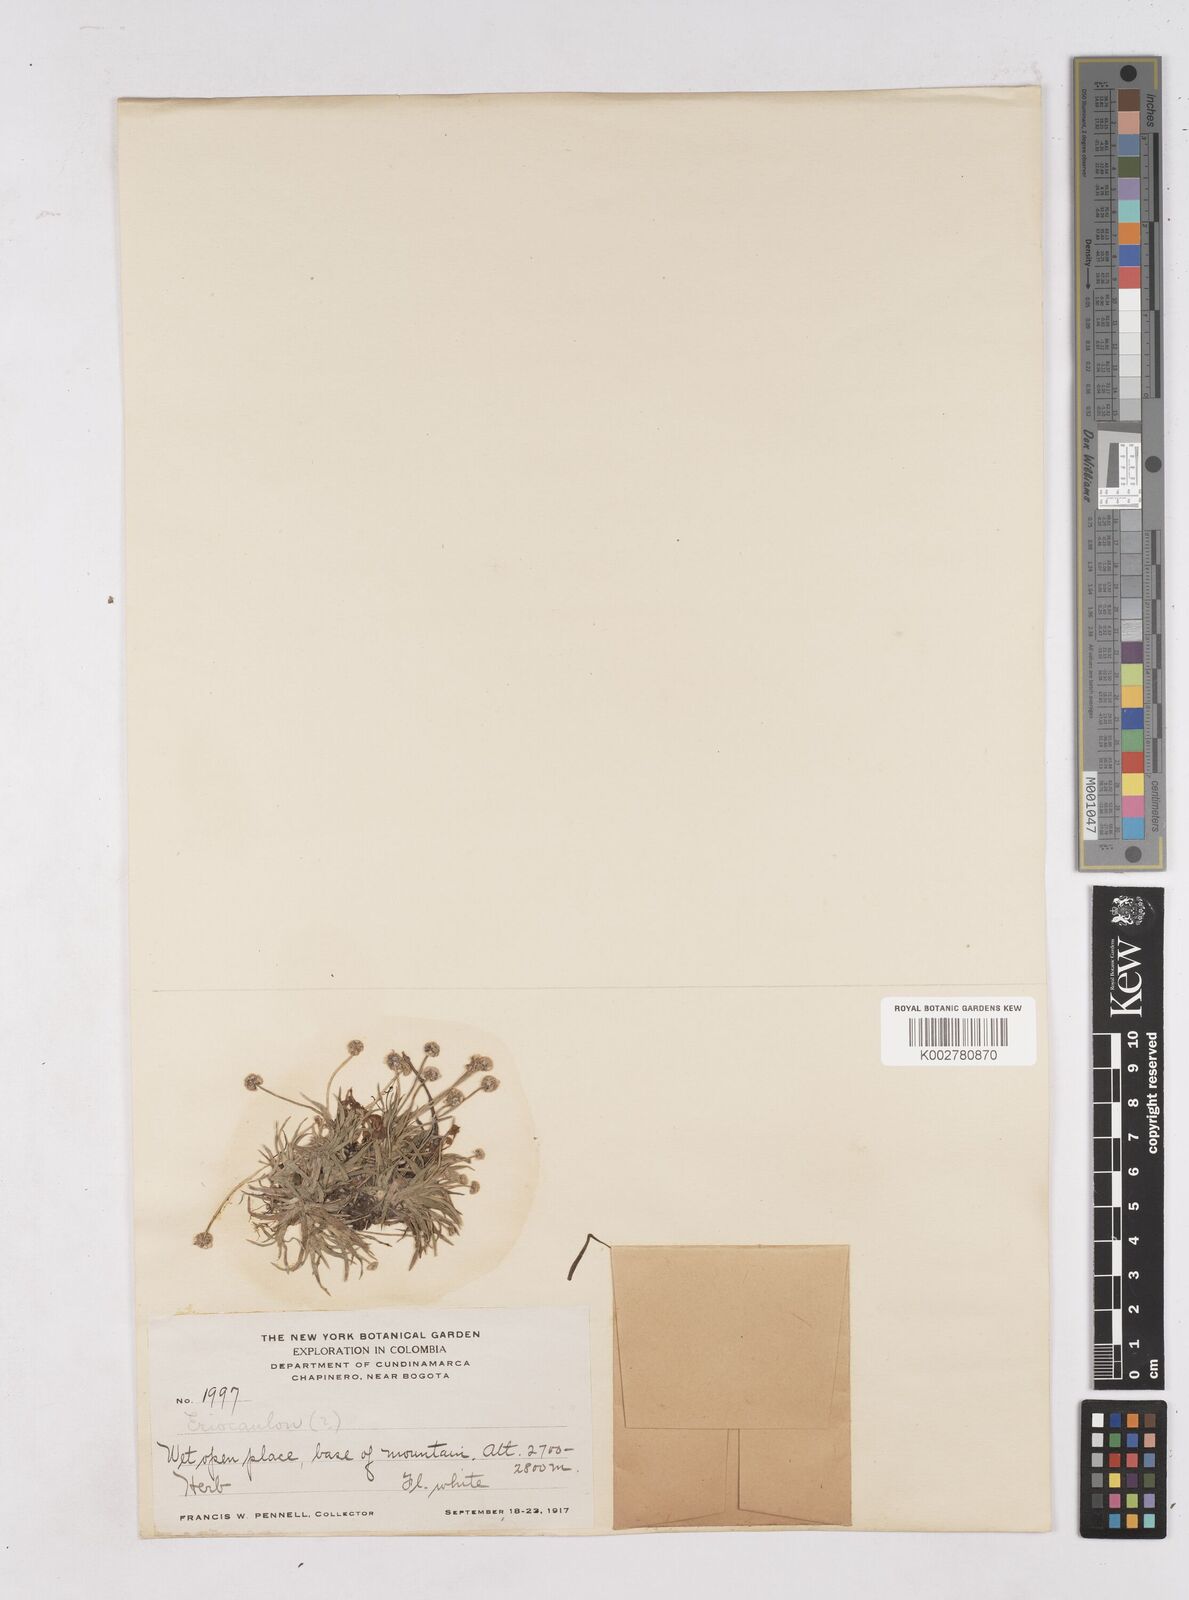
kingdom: Plantae
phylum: Tracheophyta
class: Liliopsida
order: Poales
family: Eriocaulaceae
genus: Paepalanthus
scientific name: Paepalanthus
